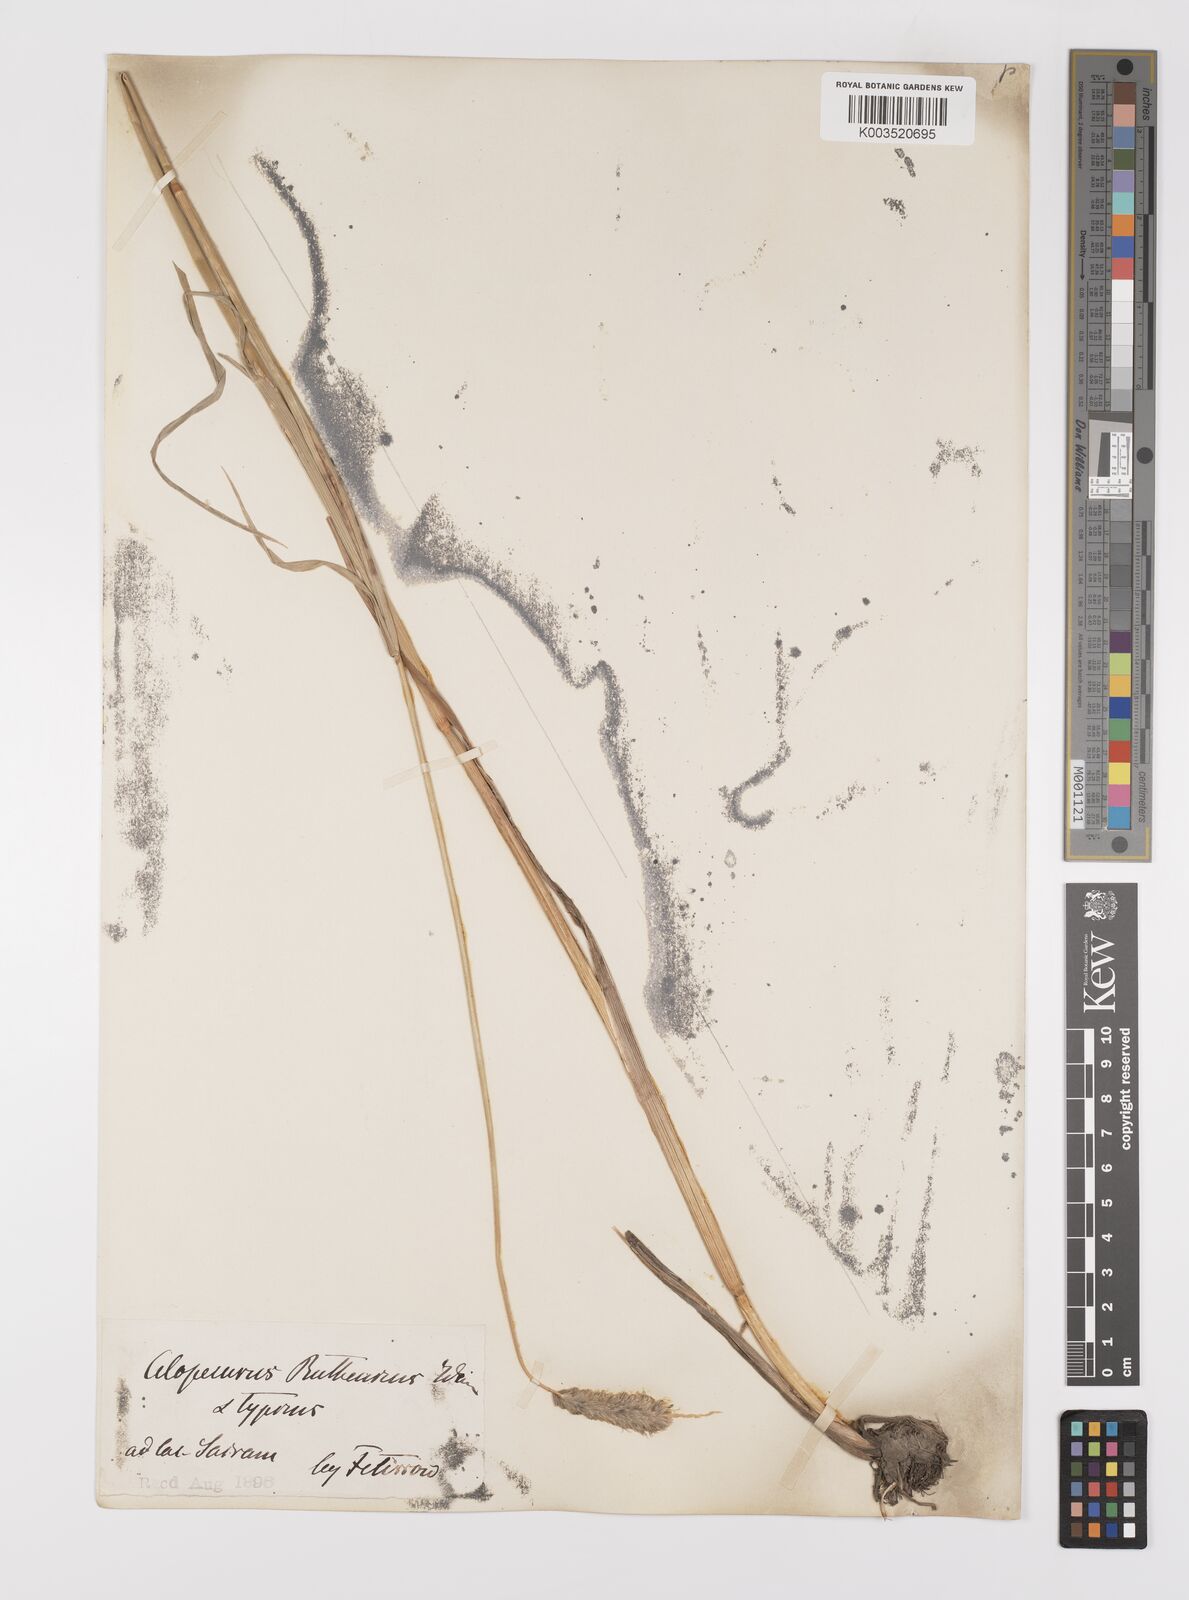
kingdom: Plantae
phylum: Tracheophyta
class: Liliopsida
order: Poales
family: Poaceae
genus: Alopecurus
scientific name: Alopecurus arundinaceus
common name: Creeping meadow foxtail
